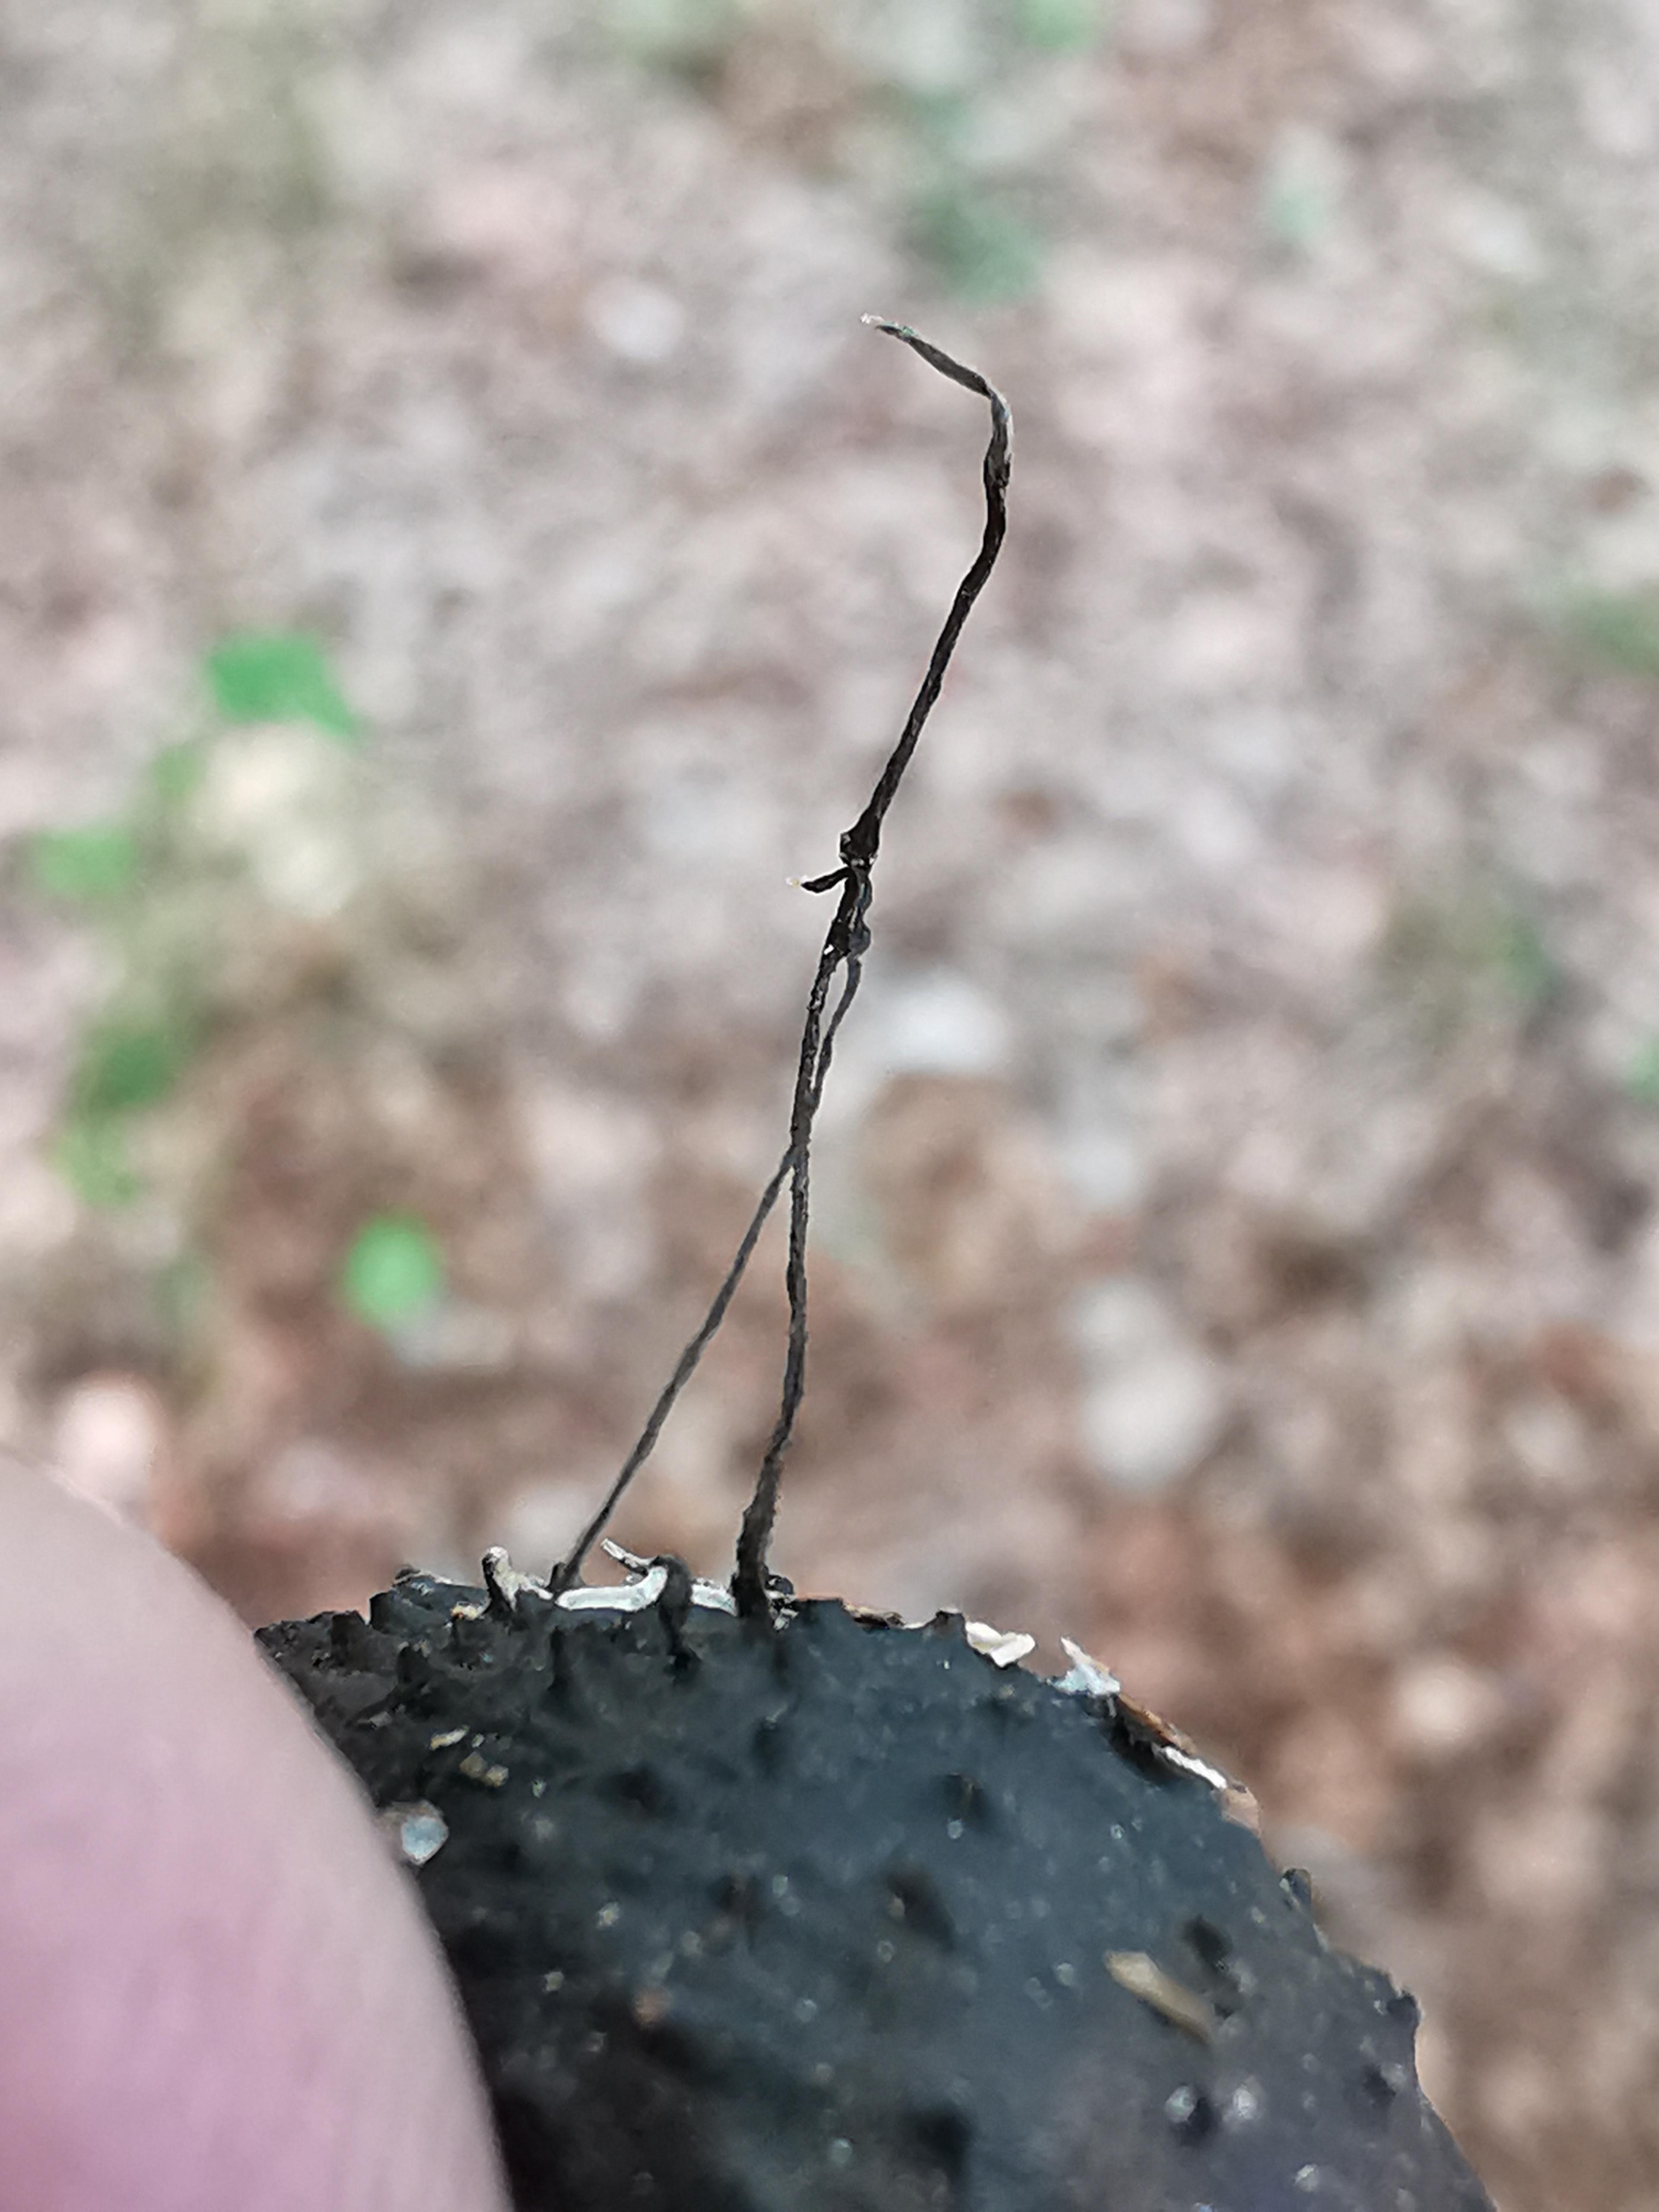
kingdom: Fungi
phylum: Ascomycota
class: Sordariomycetes
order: Xylariales
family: Xylariaceae
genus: Xylaria
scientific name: Xylaria carpophila
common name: bogskål-stødsvamp
